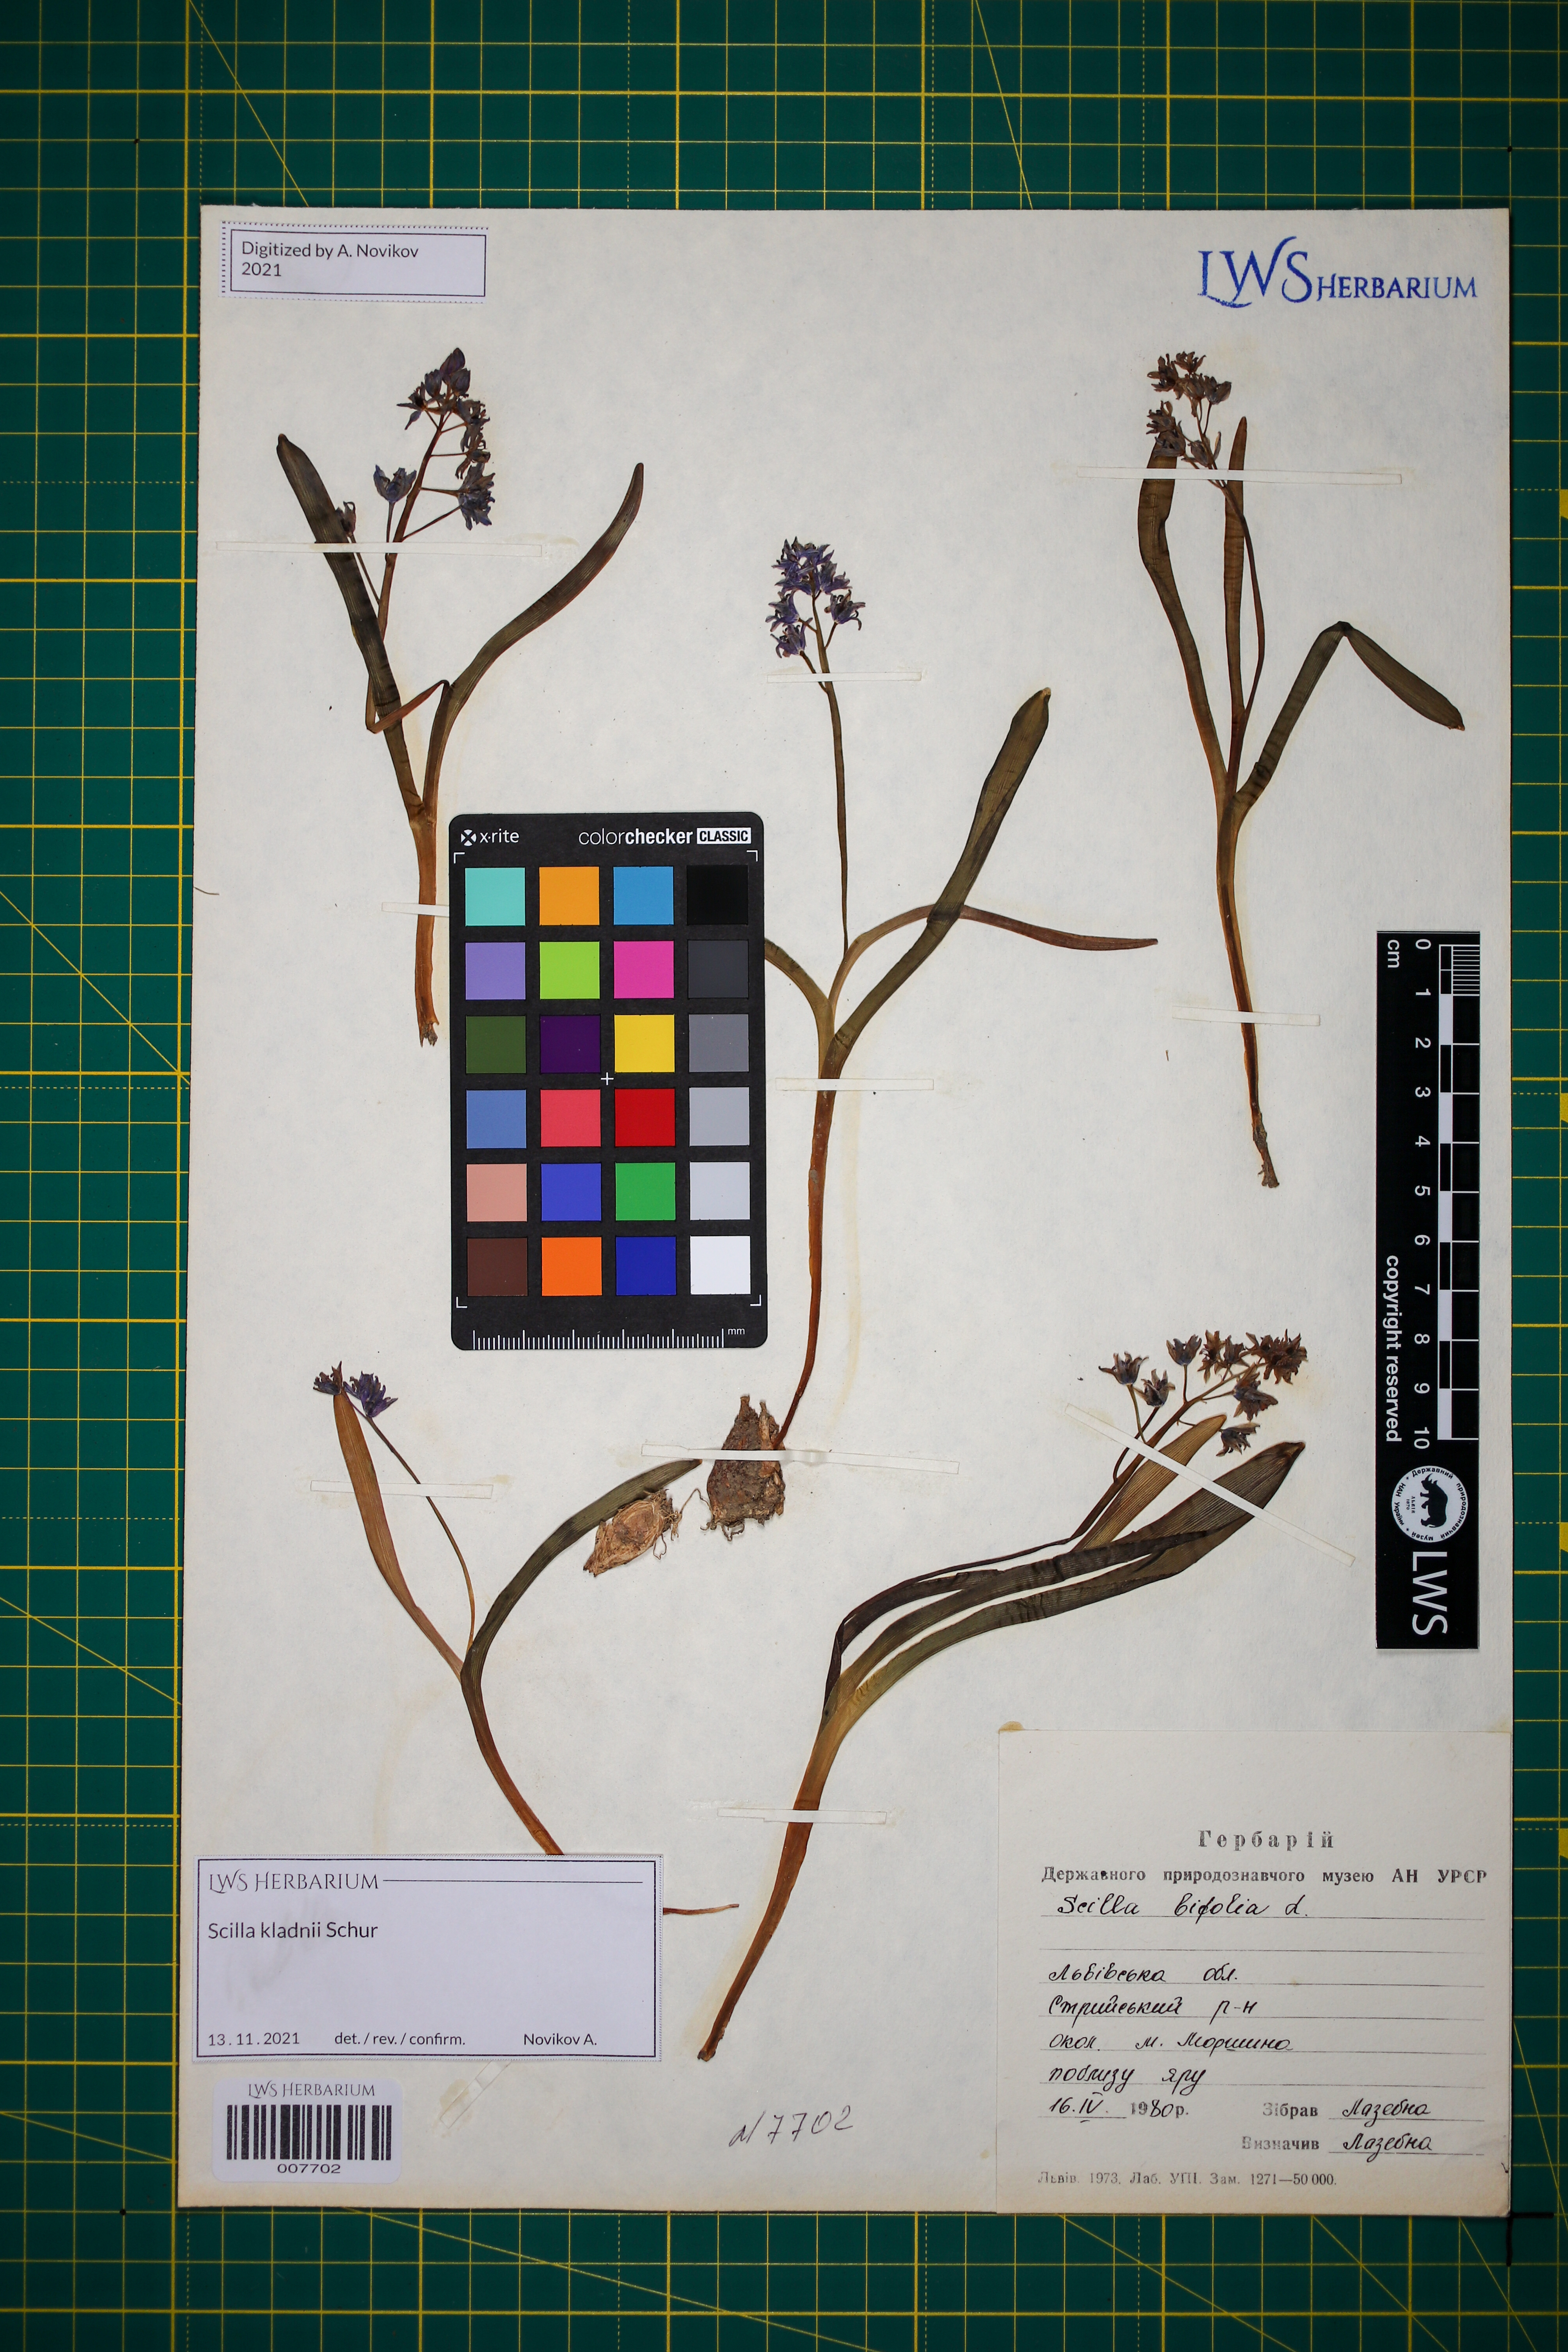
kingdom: Plantae
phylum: Tracheophyta
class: Liliopsida
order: Asparagales
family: Asparagaceae
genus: Scilla
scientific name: Scilla kladnii
